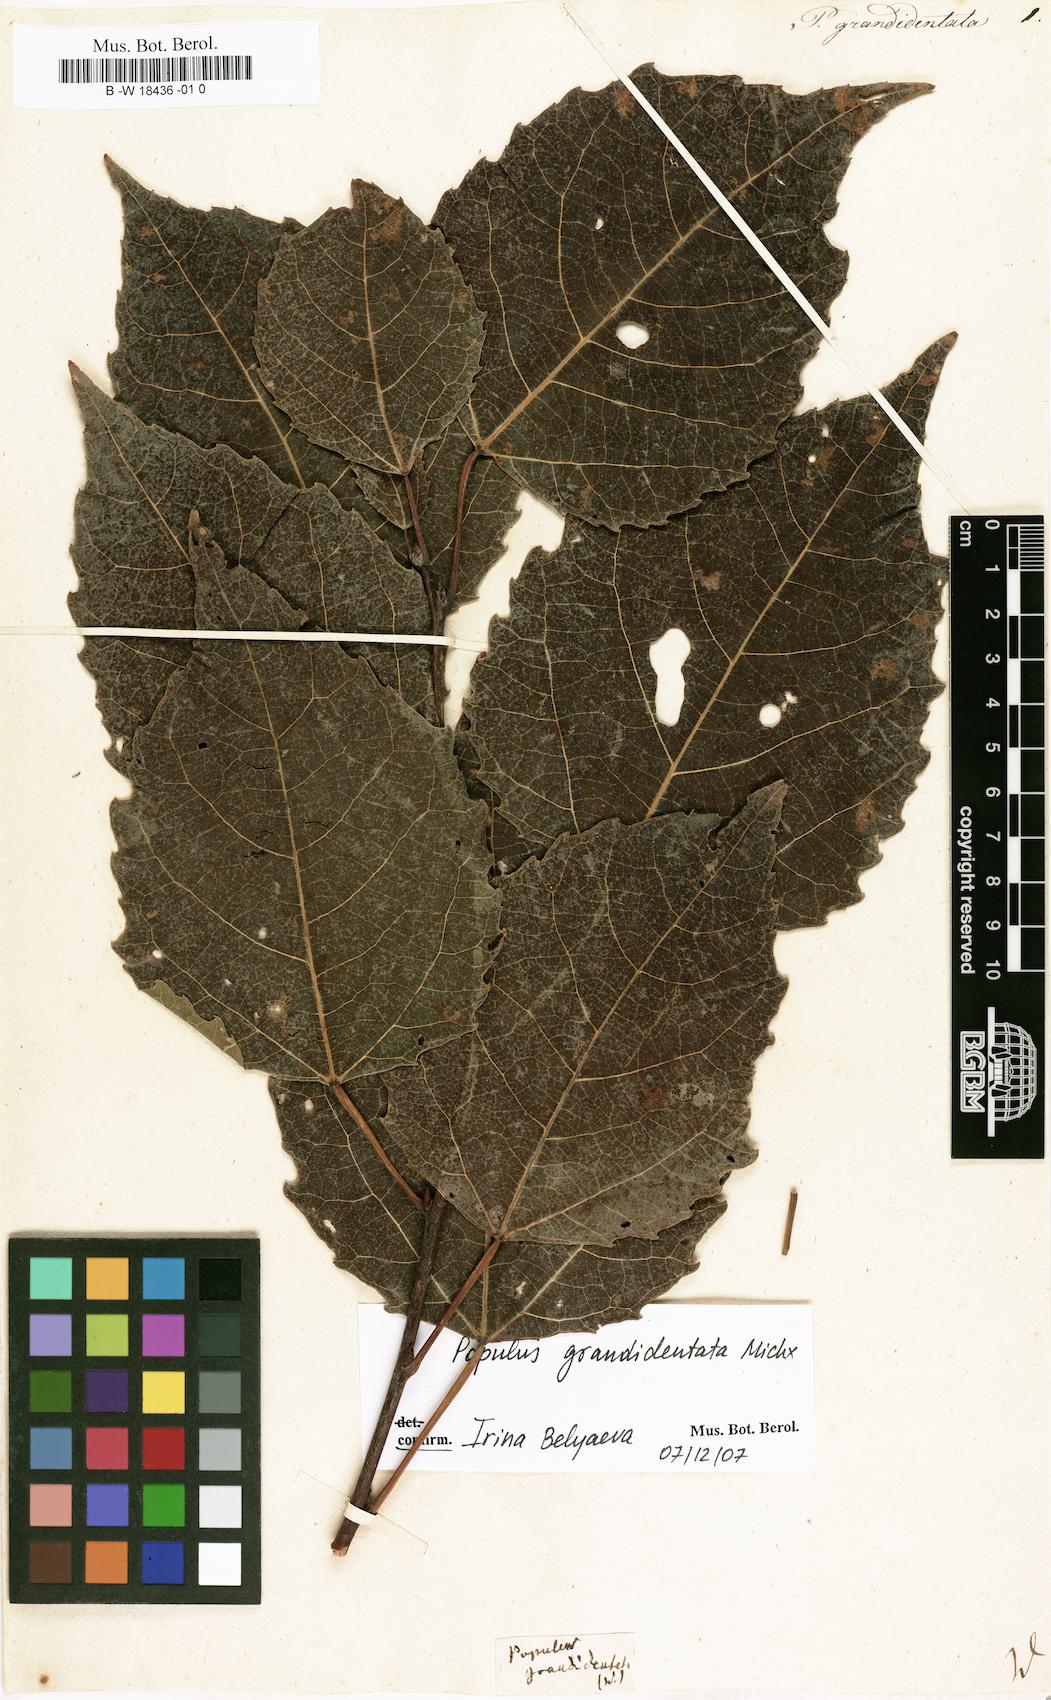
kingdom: Plantae
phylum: Tracheophyta
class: Magnoliopsida
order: Malpighiales
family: Salicaceae
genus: Populus
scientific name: Populus grandidentata
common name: Bigtooth aspen
